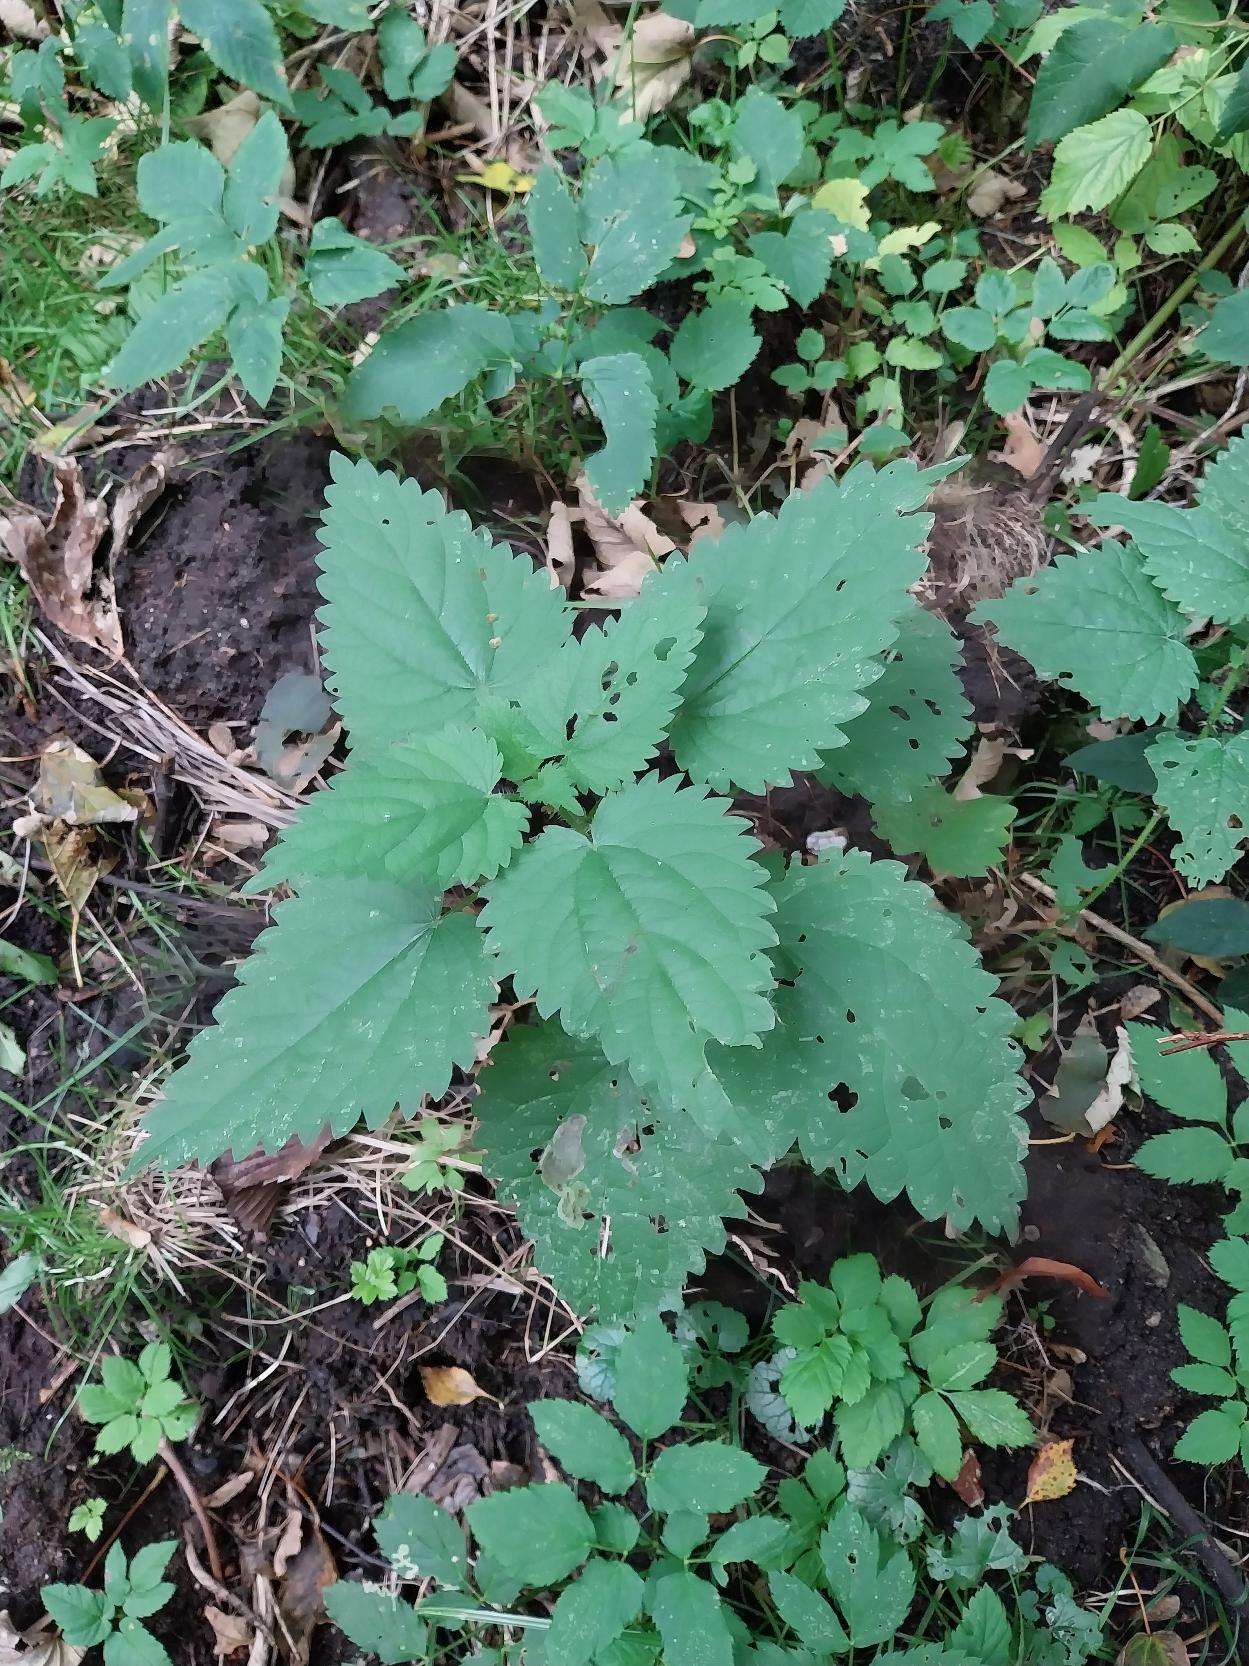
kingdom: Plantae
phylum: Tracheophyta
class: Magnoliopsida
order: Rosales
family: Urticaceae
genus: Urtica
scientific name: Urtica dioica
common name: Stor nælde
